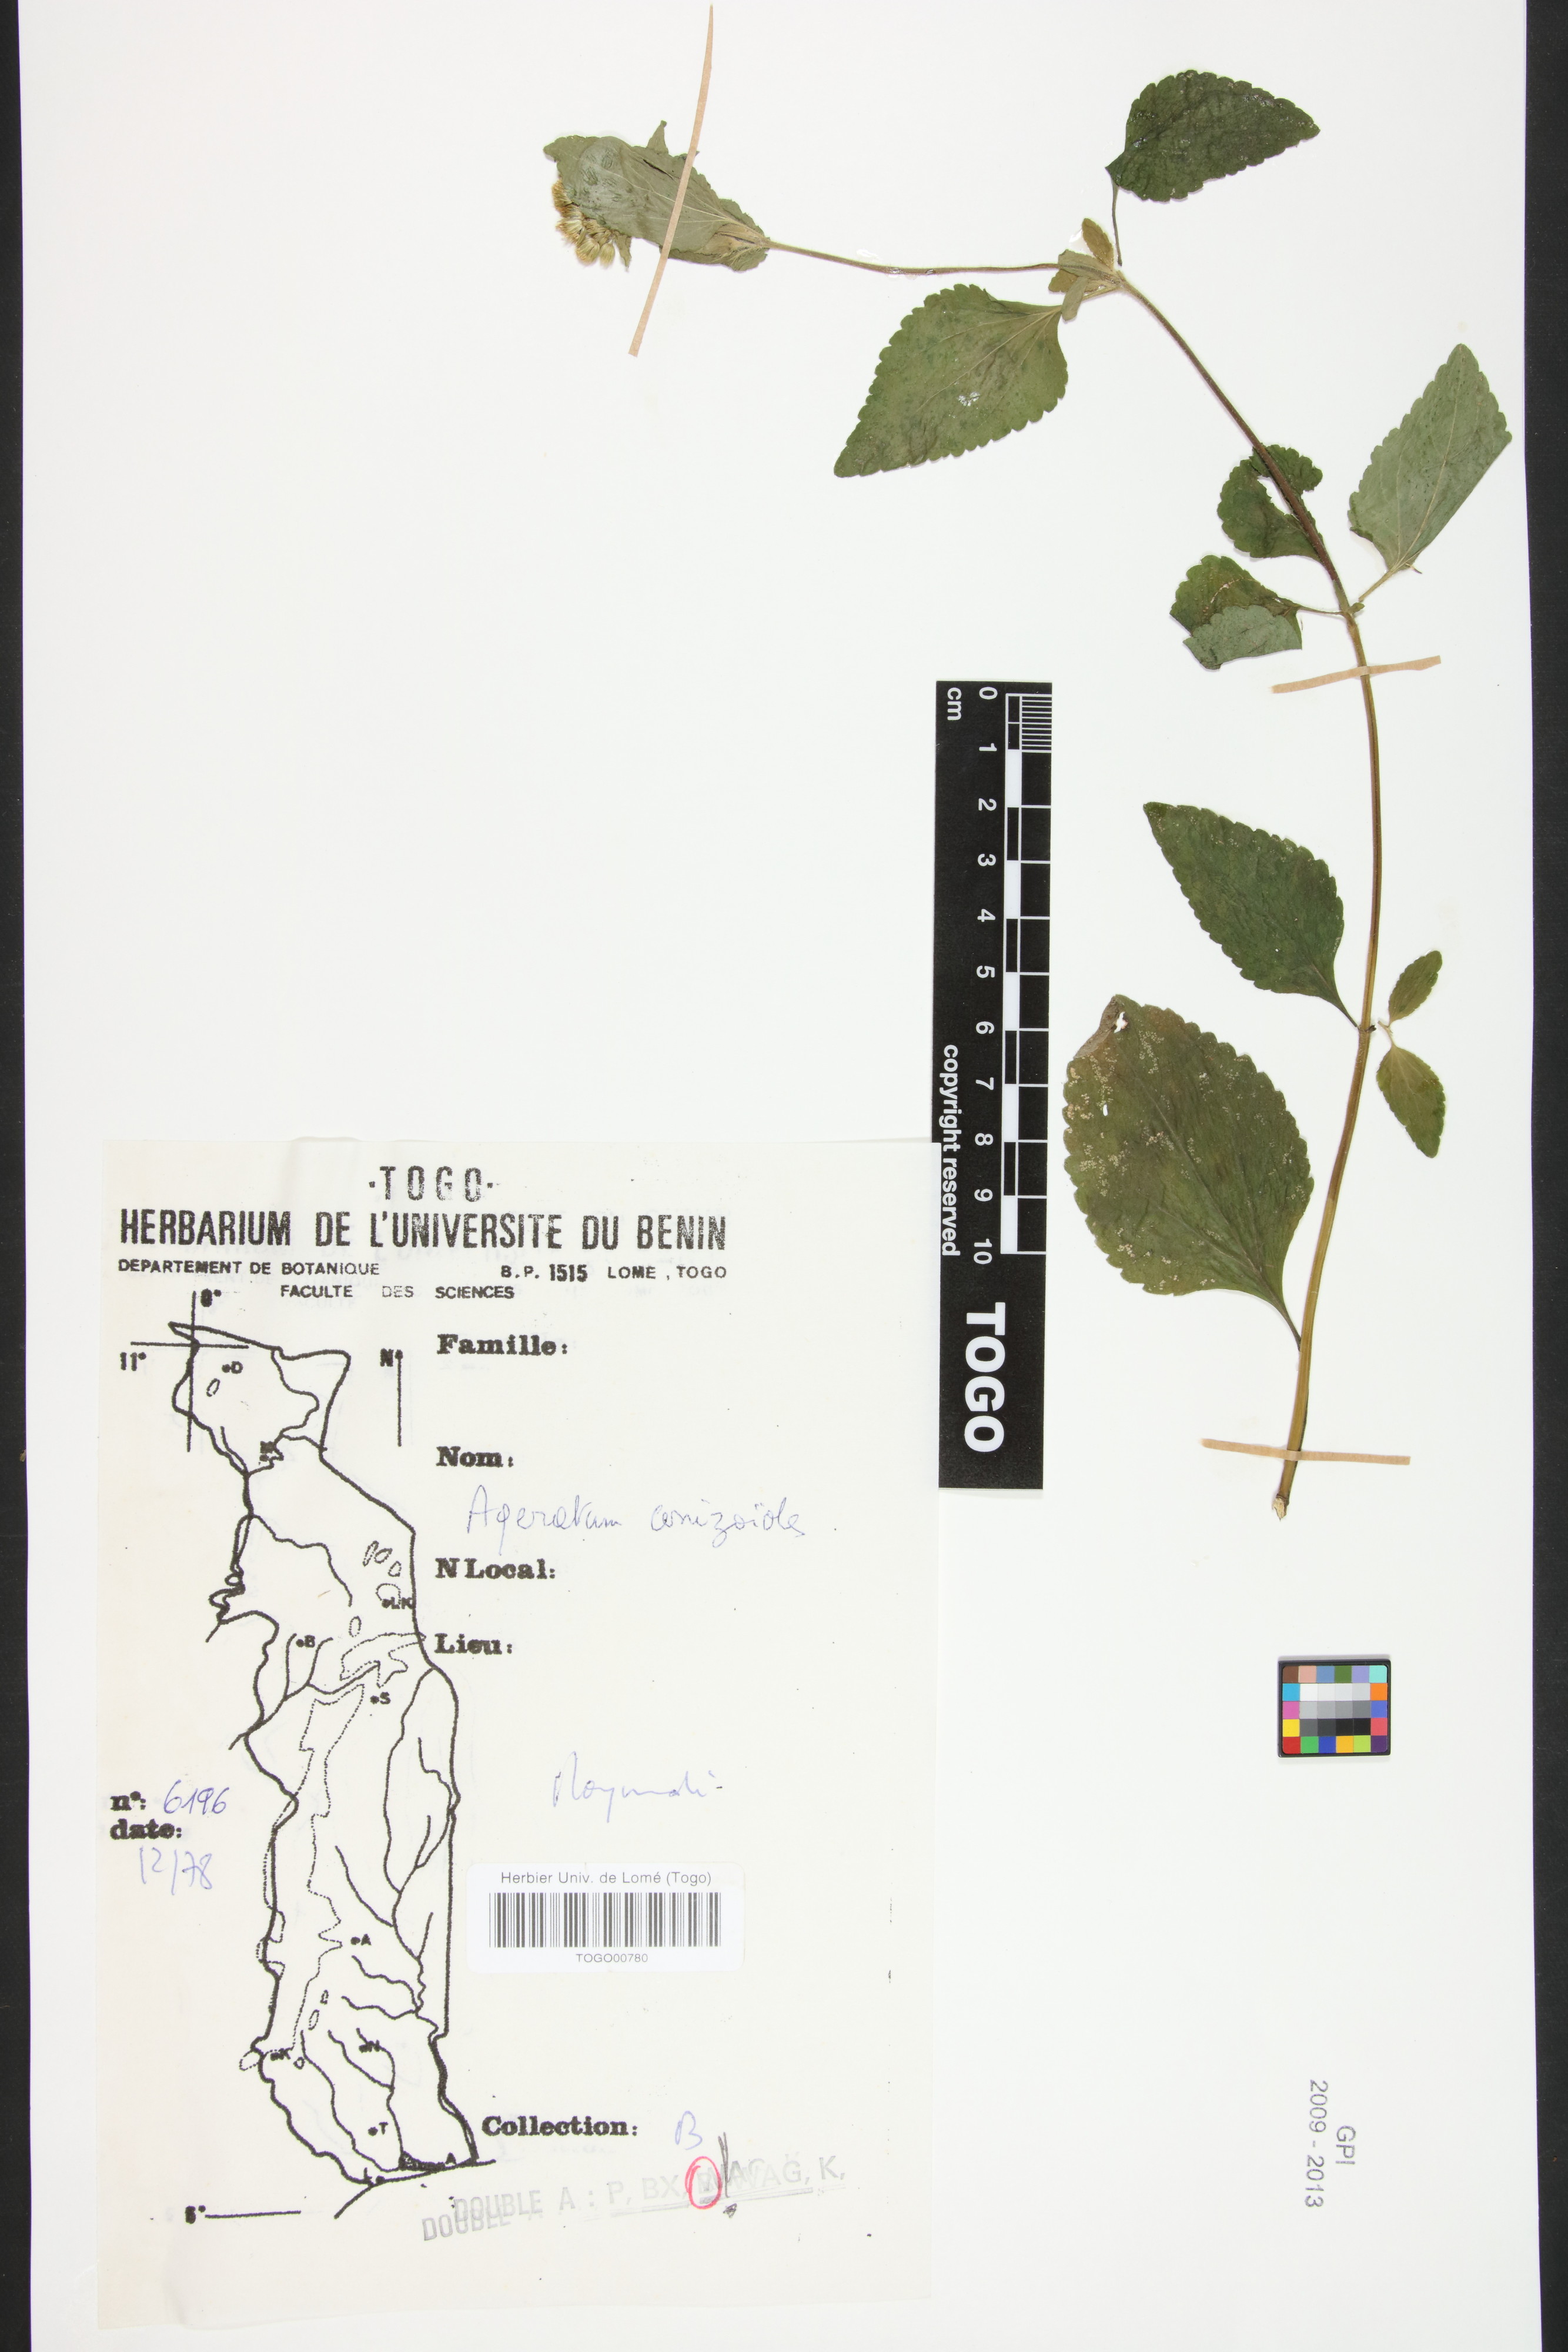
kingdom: Plantae
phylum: Tracheophyta
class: Magnoliopsida
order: Asterales
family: Asteraceae
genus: Ageratum
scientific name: Ageratum conyzoides
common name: Tropical whiteweed
